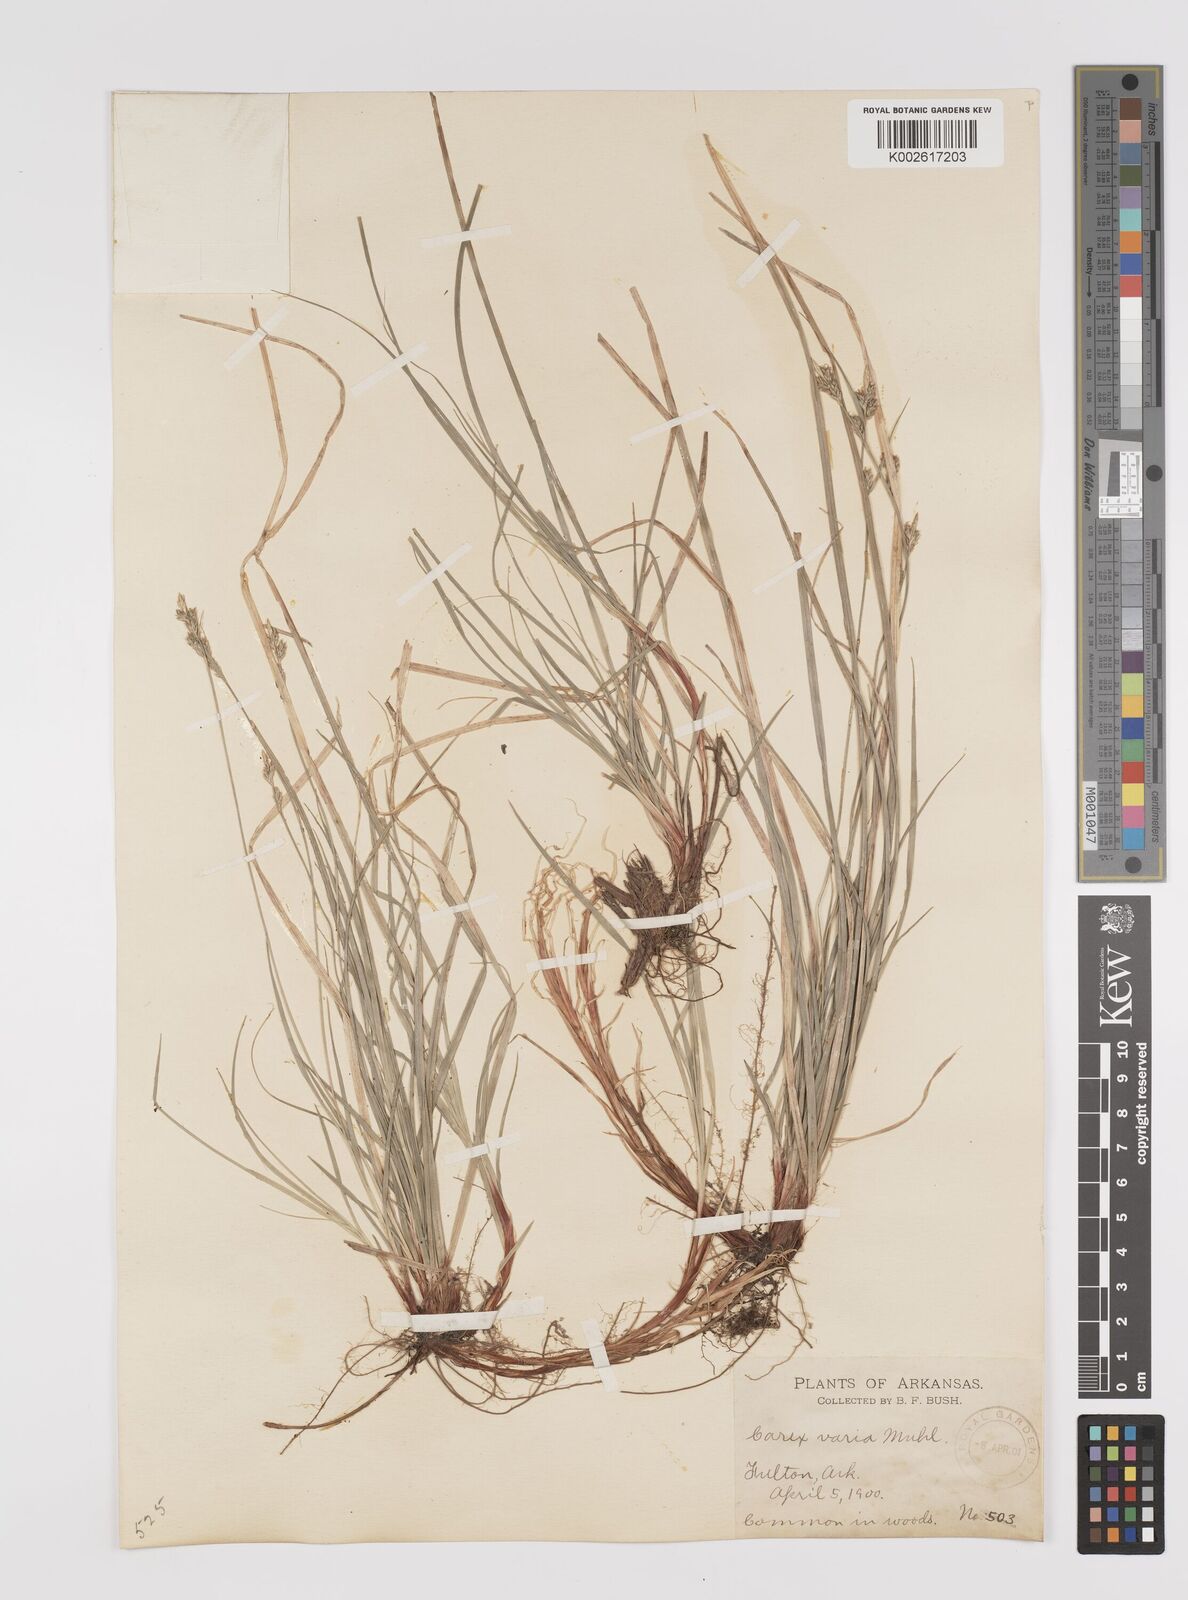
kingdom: Plantae
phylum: Tracheophyta
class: Liliopsida
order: Poales
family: Cyperaceae
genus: Carex
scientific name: Carex albicans
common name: Bellow-beaked sedge
